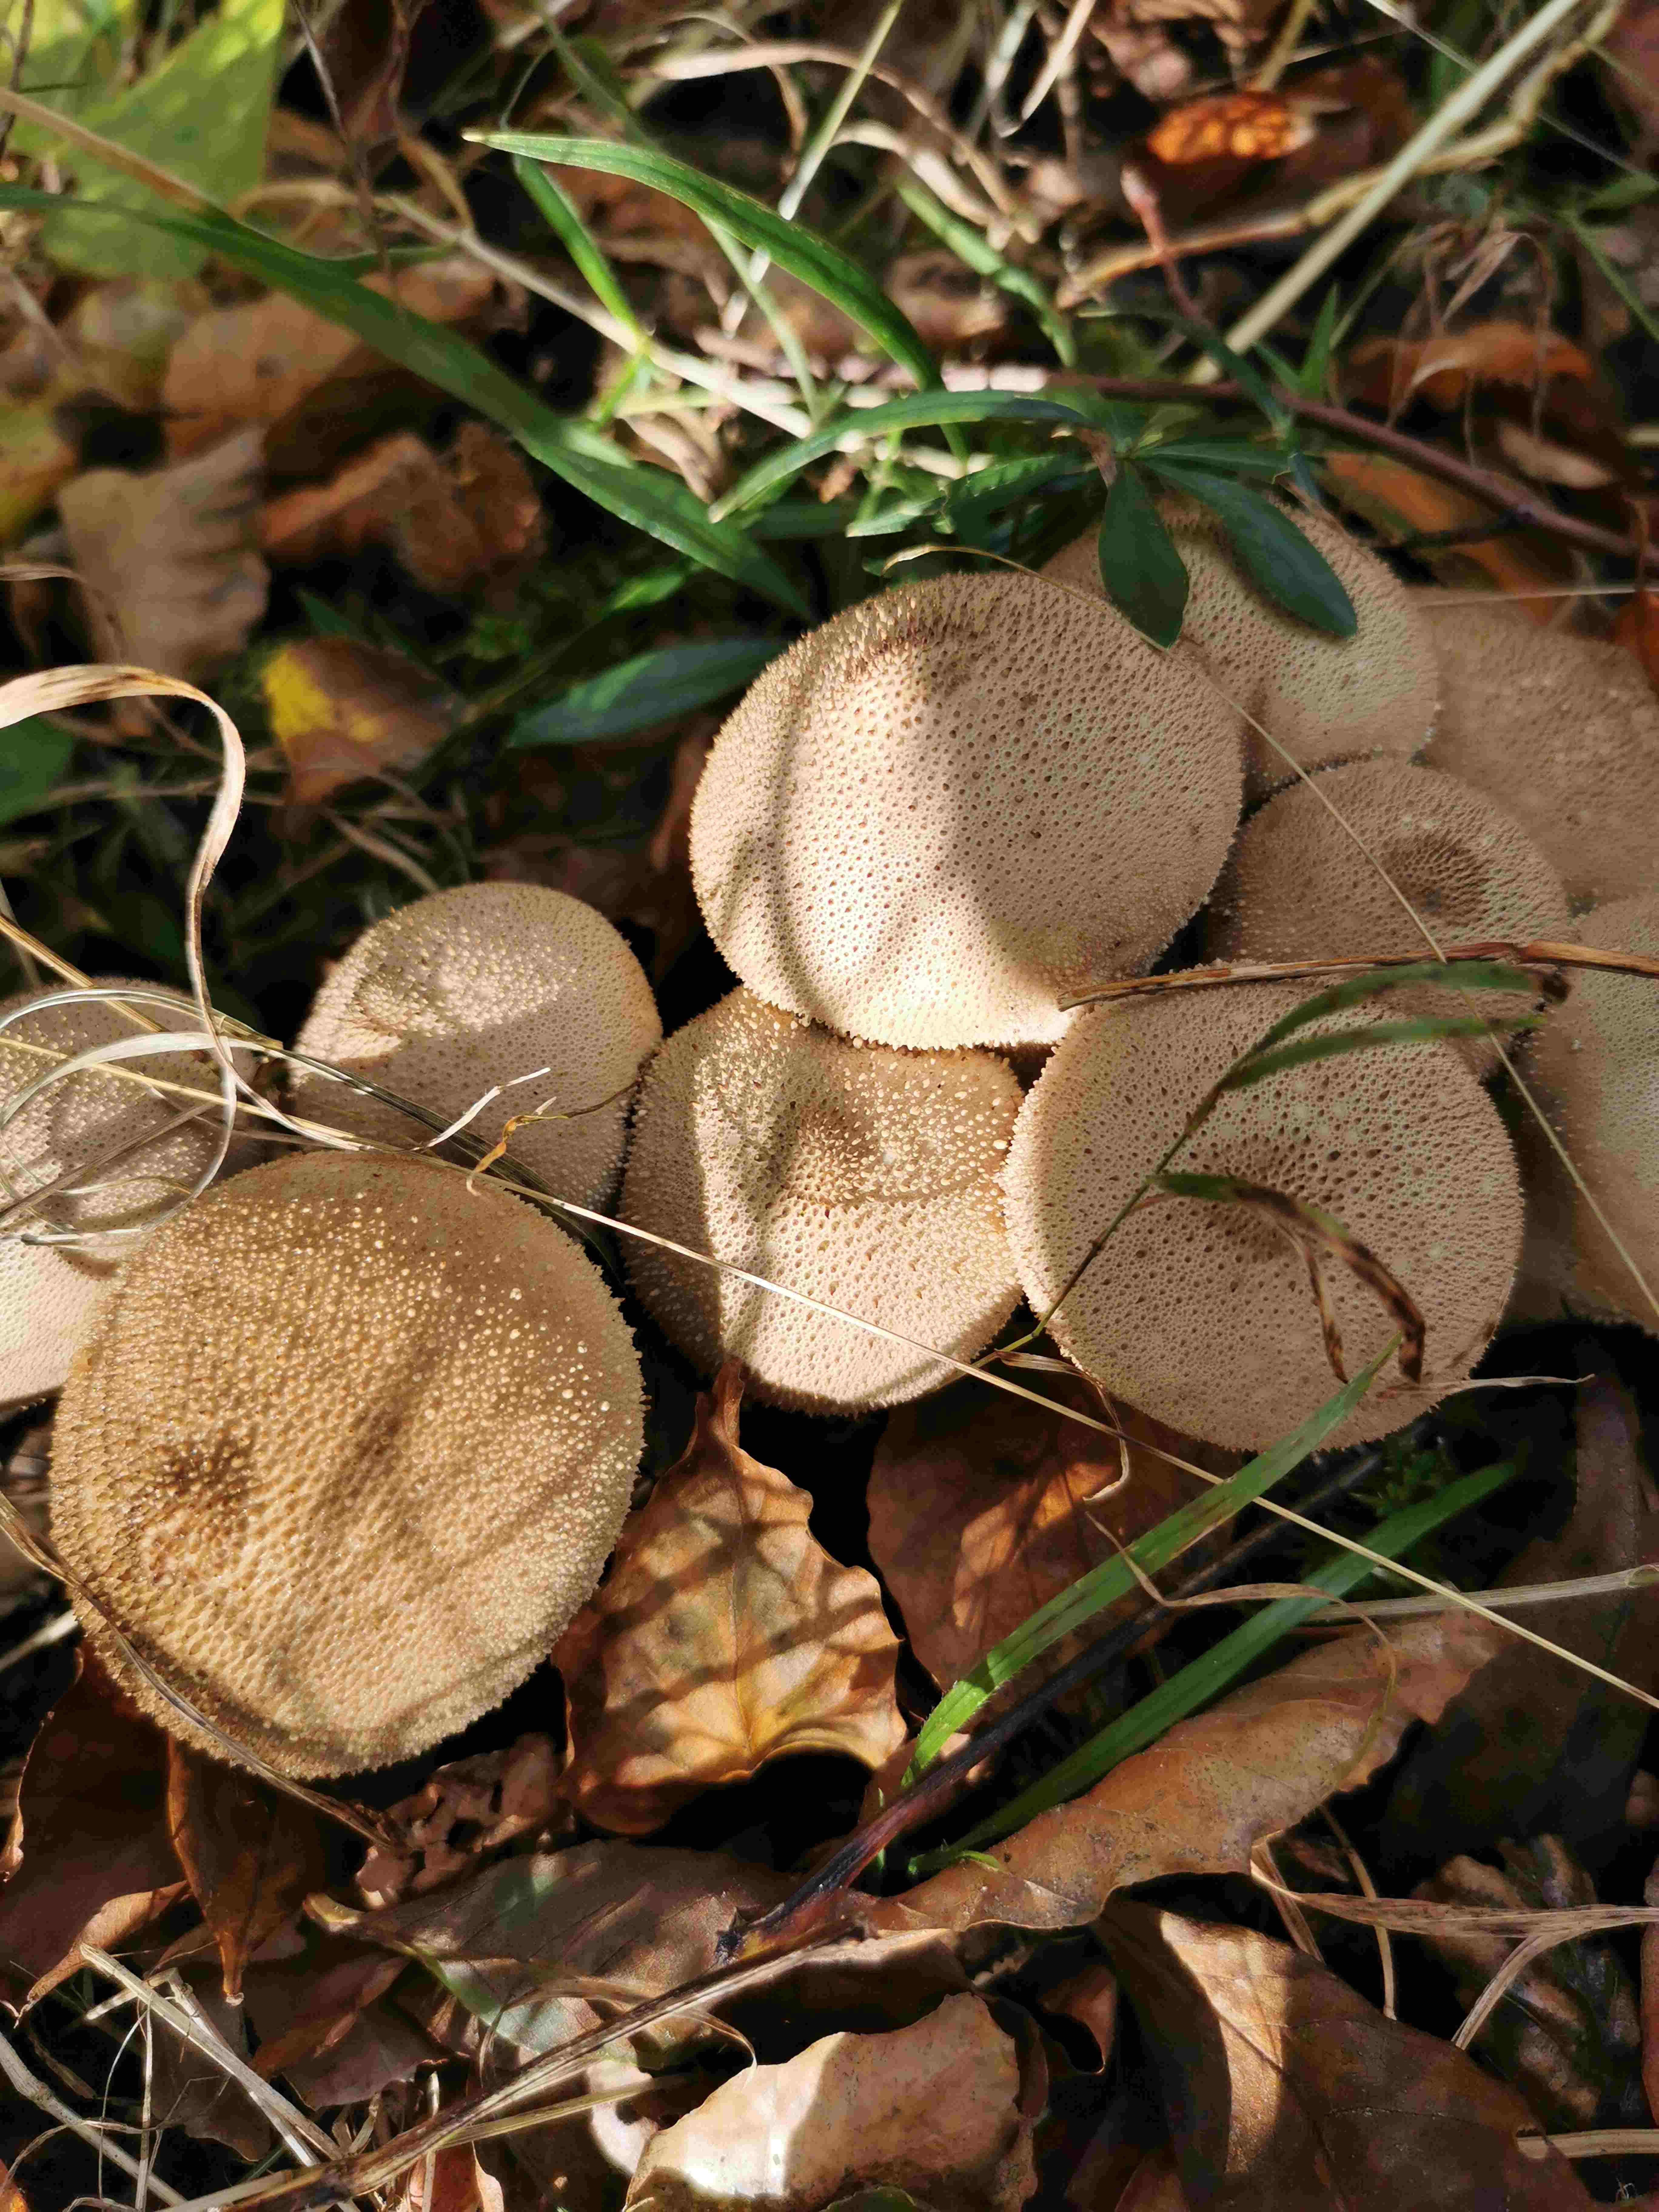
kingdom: Fungi
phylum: Basidiomycota
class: Agaricomycetes
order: Agaricales
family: Lycoperdaceae
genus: Lycoperdon
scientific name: Lycoperdon perlatum
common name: krystal-støvbold
